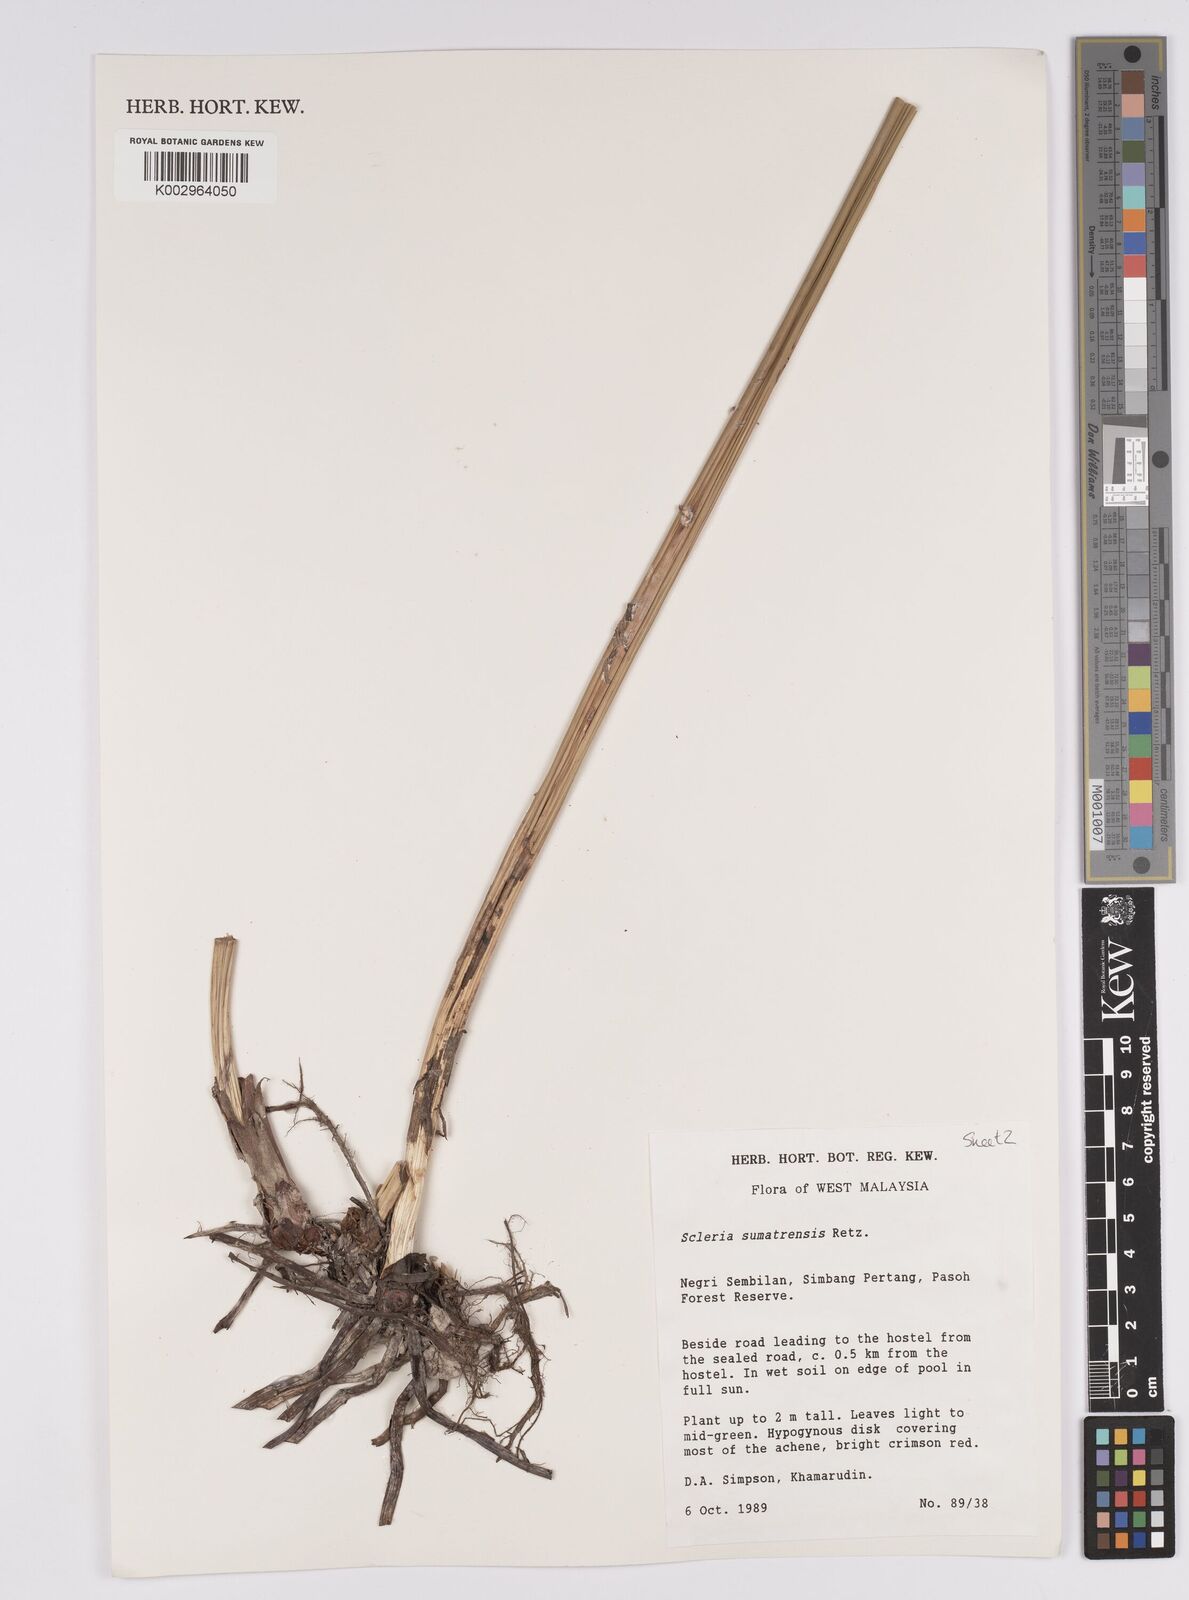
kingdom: Plantae
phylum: Tracheophyta
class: Liliopsida
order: Poales
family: Cyperaceae
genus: Scleria
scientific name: Scleria sumatrensis
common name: Sumatran scleria
